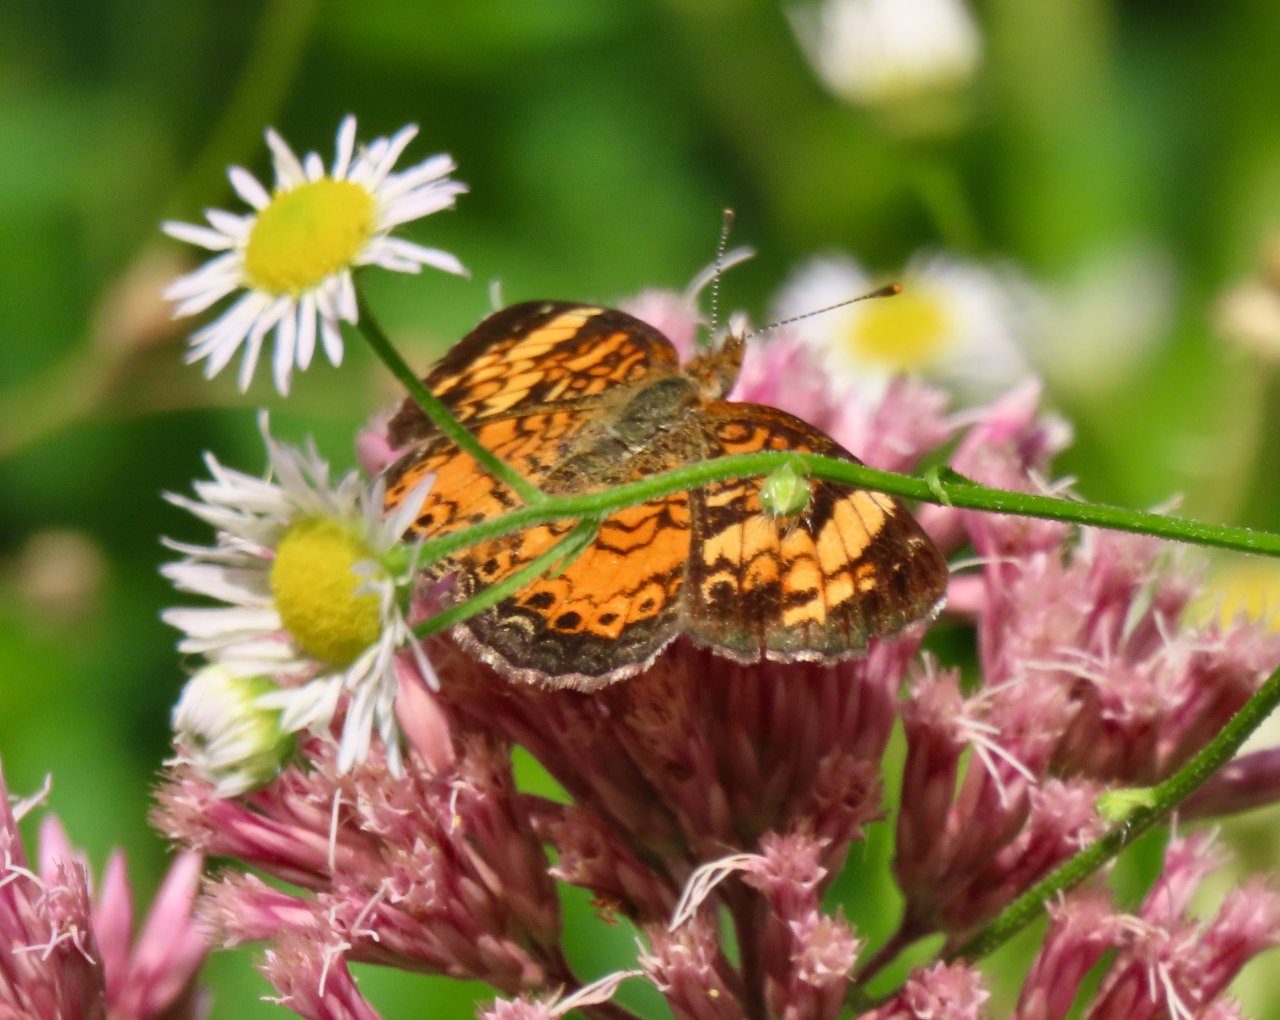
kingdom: Animalia
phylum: Arthropoda
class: Insecta
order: Lepidoptera
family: Nymphalidae
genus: Phyciodes
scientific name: Phyciodes tharos
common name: Pearl Crescent
